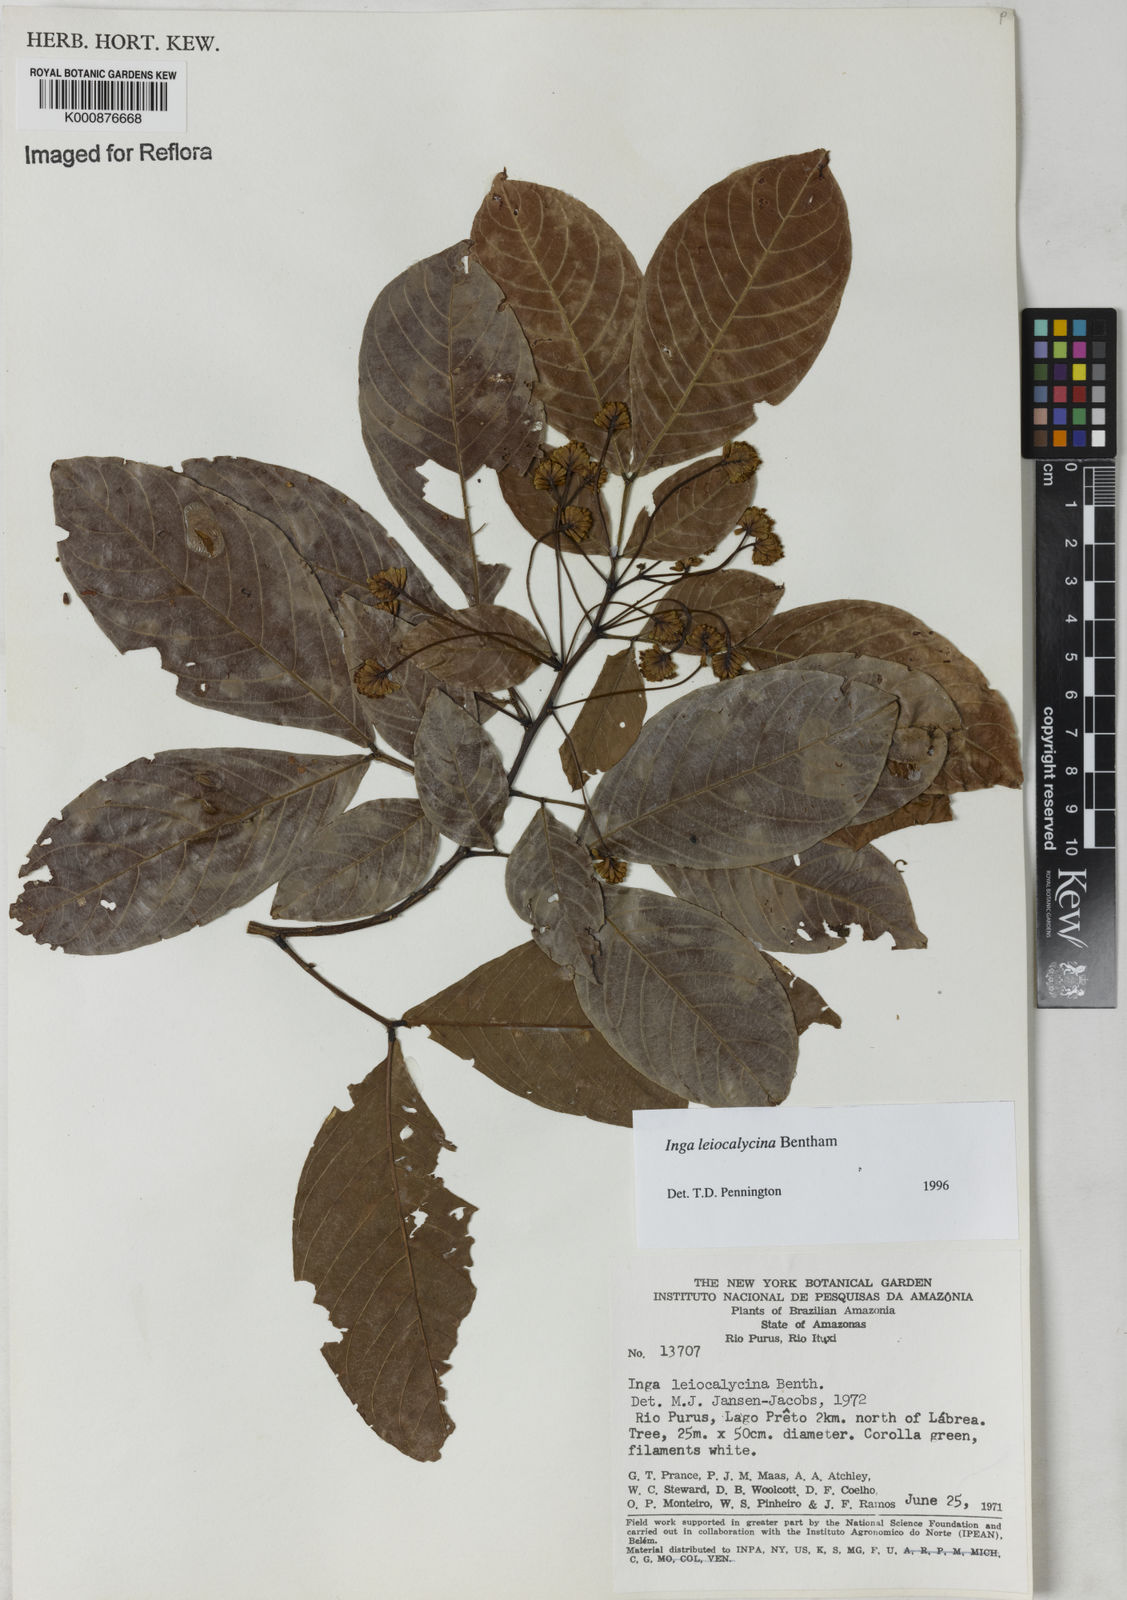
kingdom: Plantae
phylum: Tracheophyta
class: Magnoliopsida
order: Fabales
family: Fabaceae
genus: Inga
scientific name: Inga laevigata
